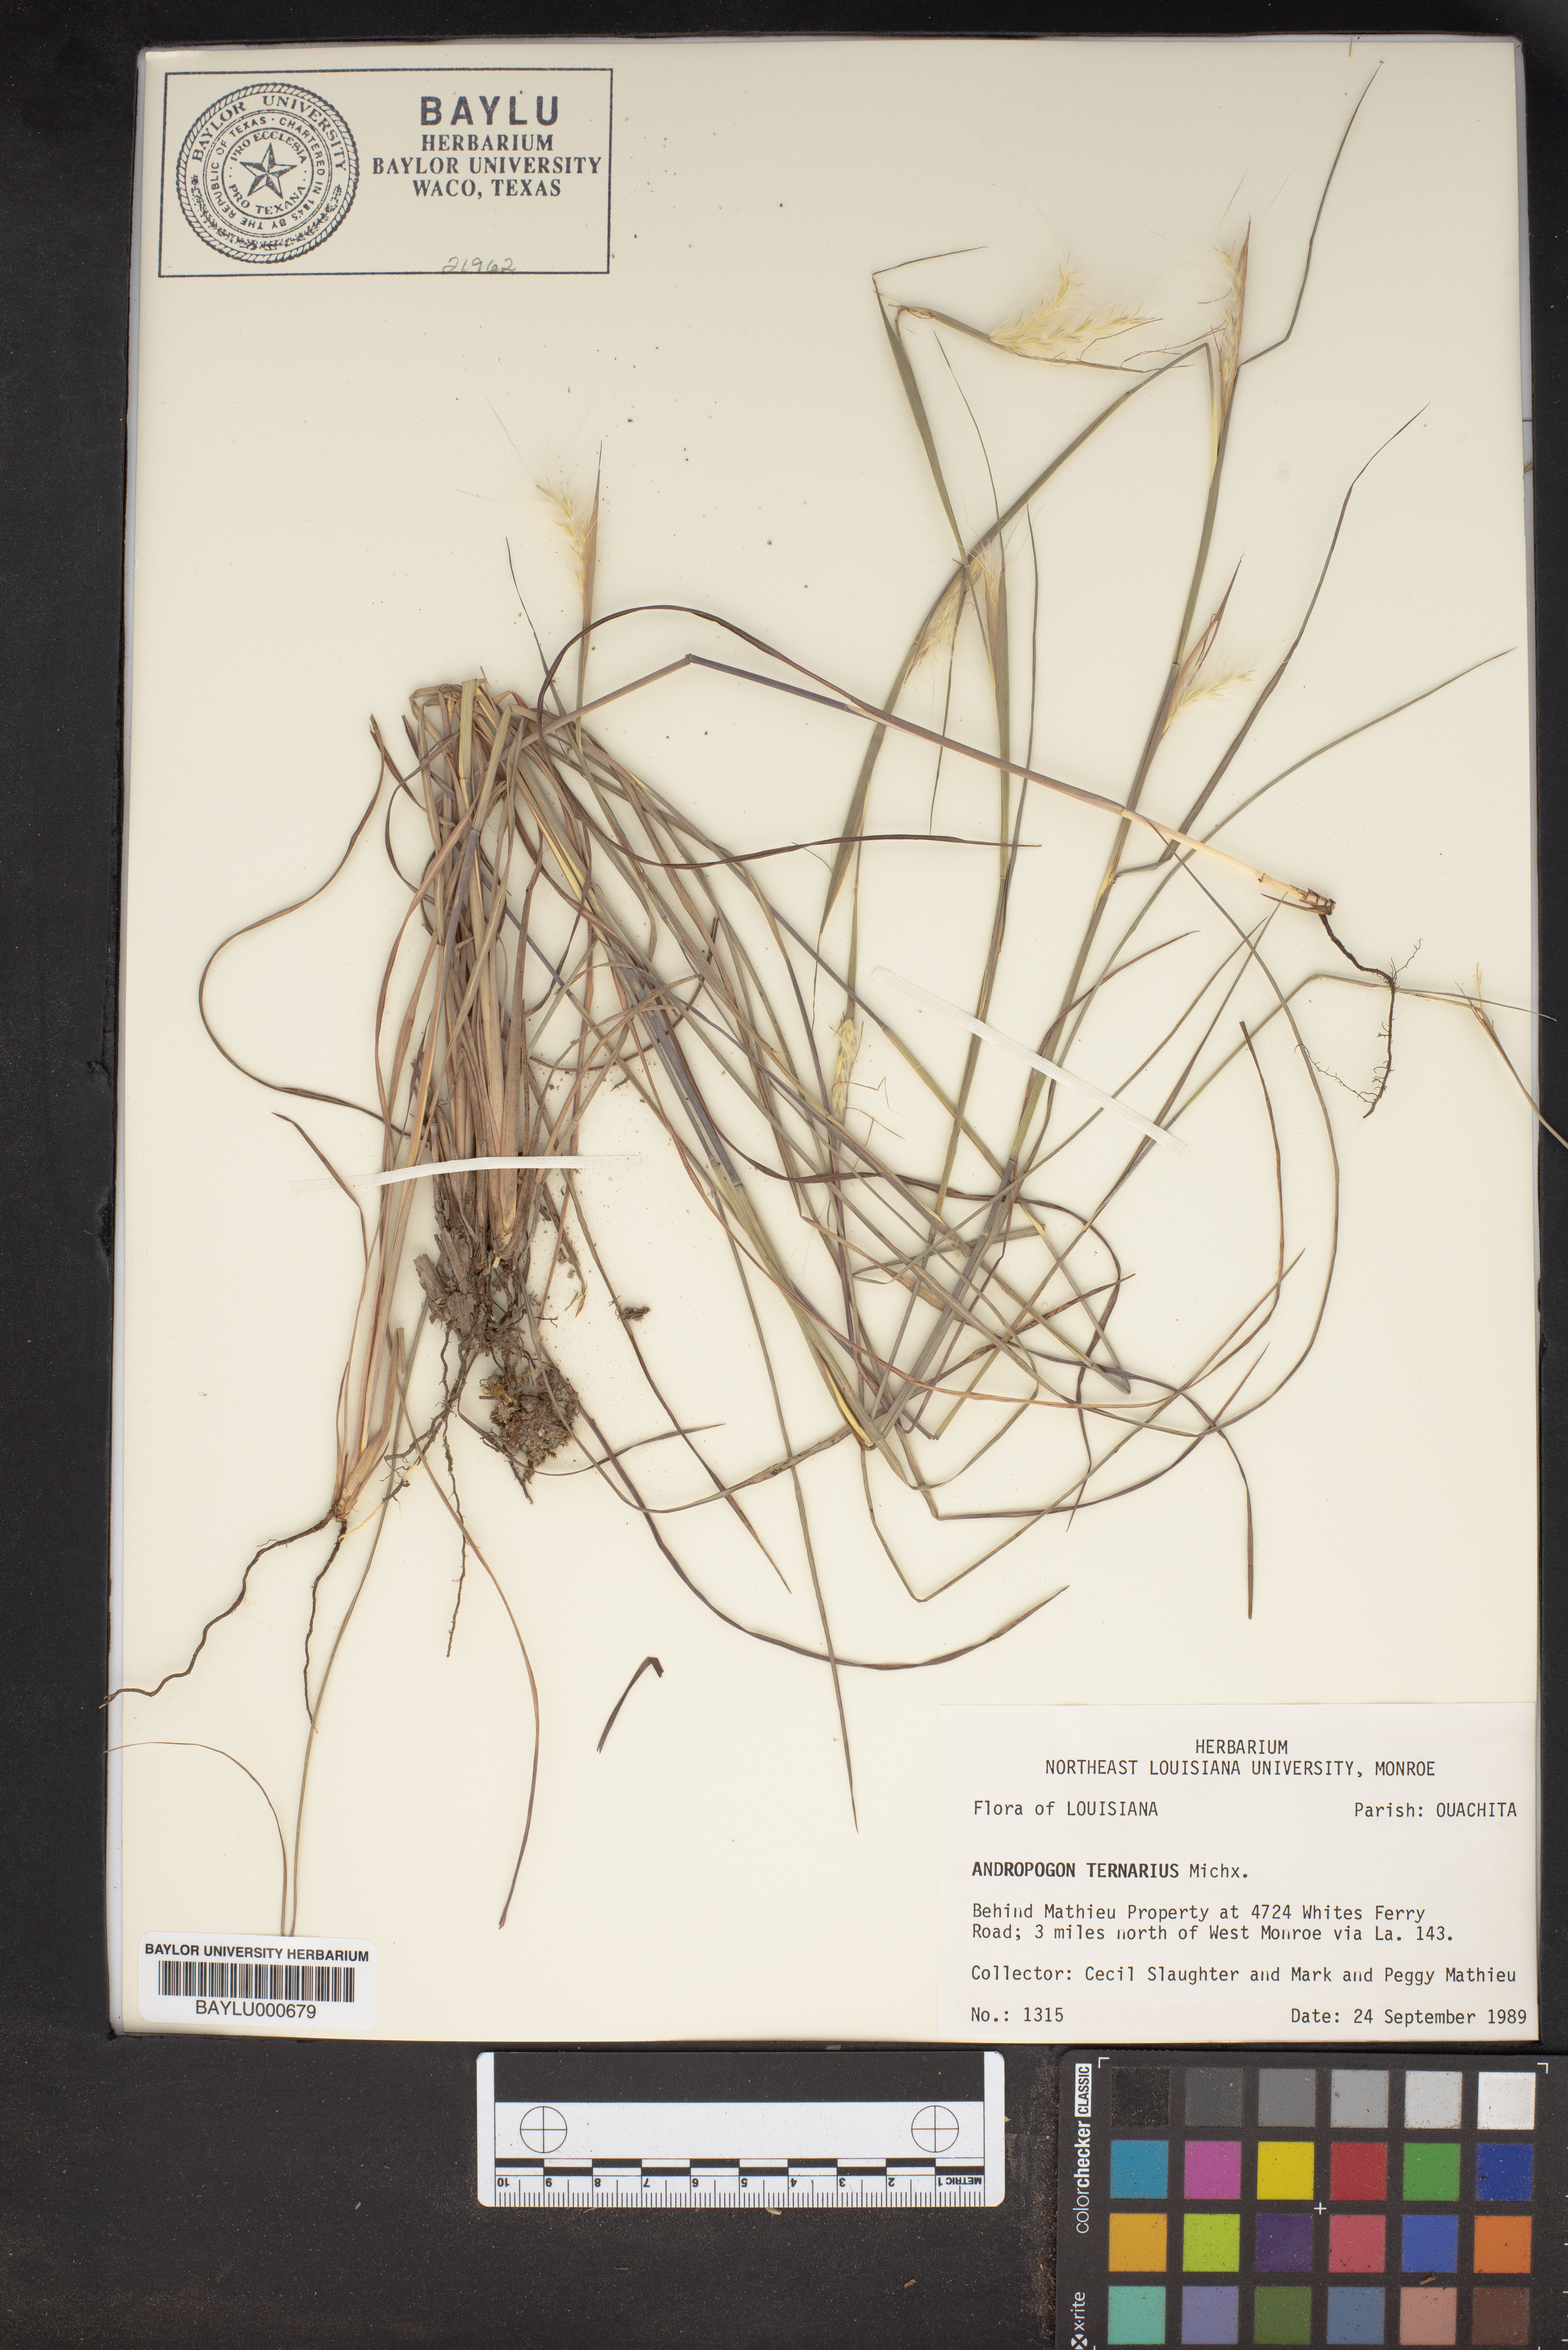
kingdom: Plantae
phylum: Tracheophyta
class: Liliopsida
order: Poales
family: Poaceae
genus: Andropogon
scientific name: Andropogon ternarius
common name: Split bluestem
